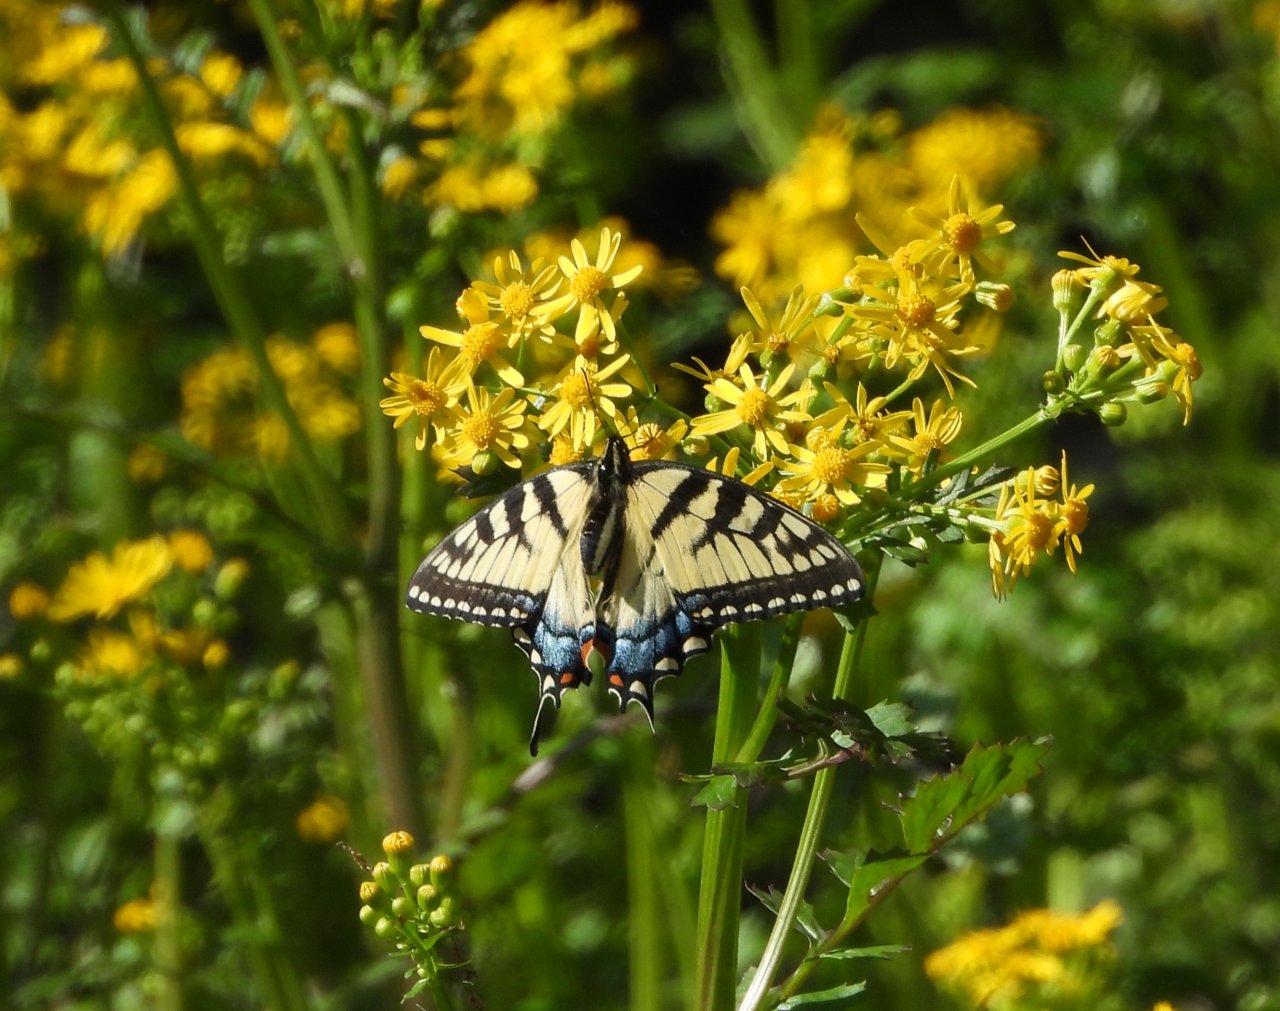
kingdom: Animalia
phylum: Arthropoda
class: Insecta
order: Lepidoptera
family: Papilionidae
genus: Pterourus
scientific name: Pterourus glaucus
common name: Eastern Tiger Swallowtail
